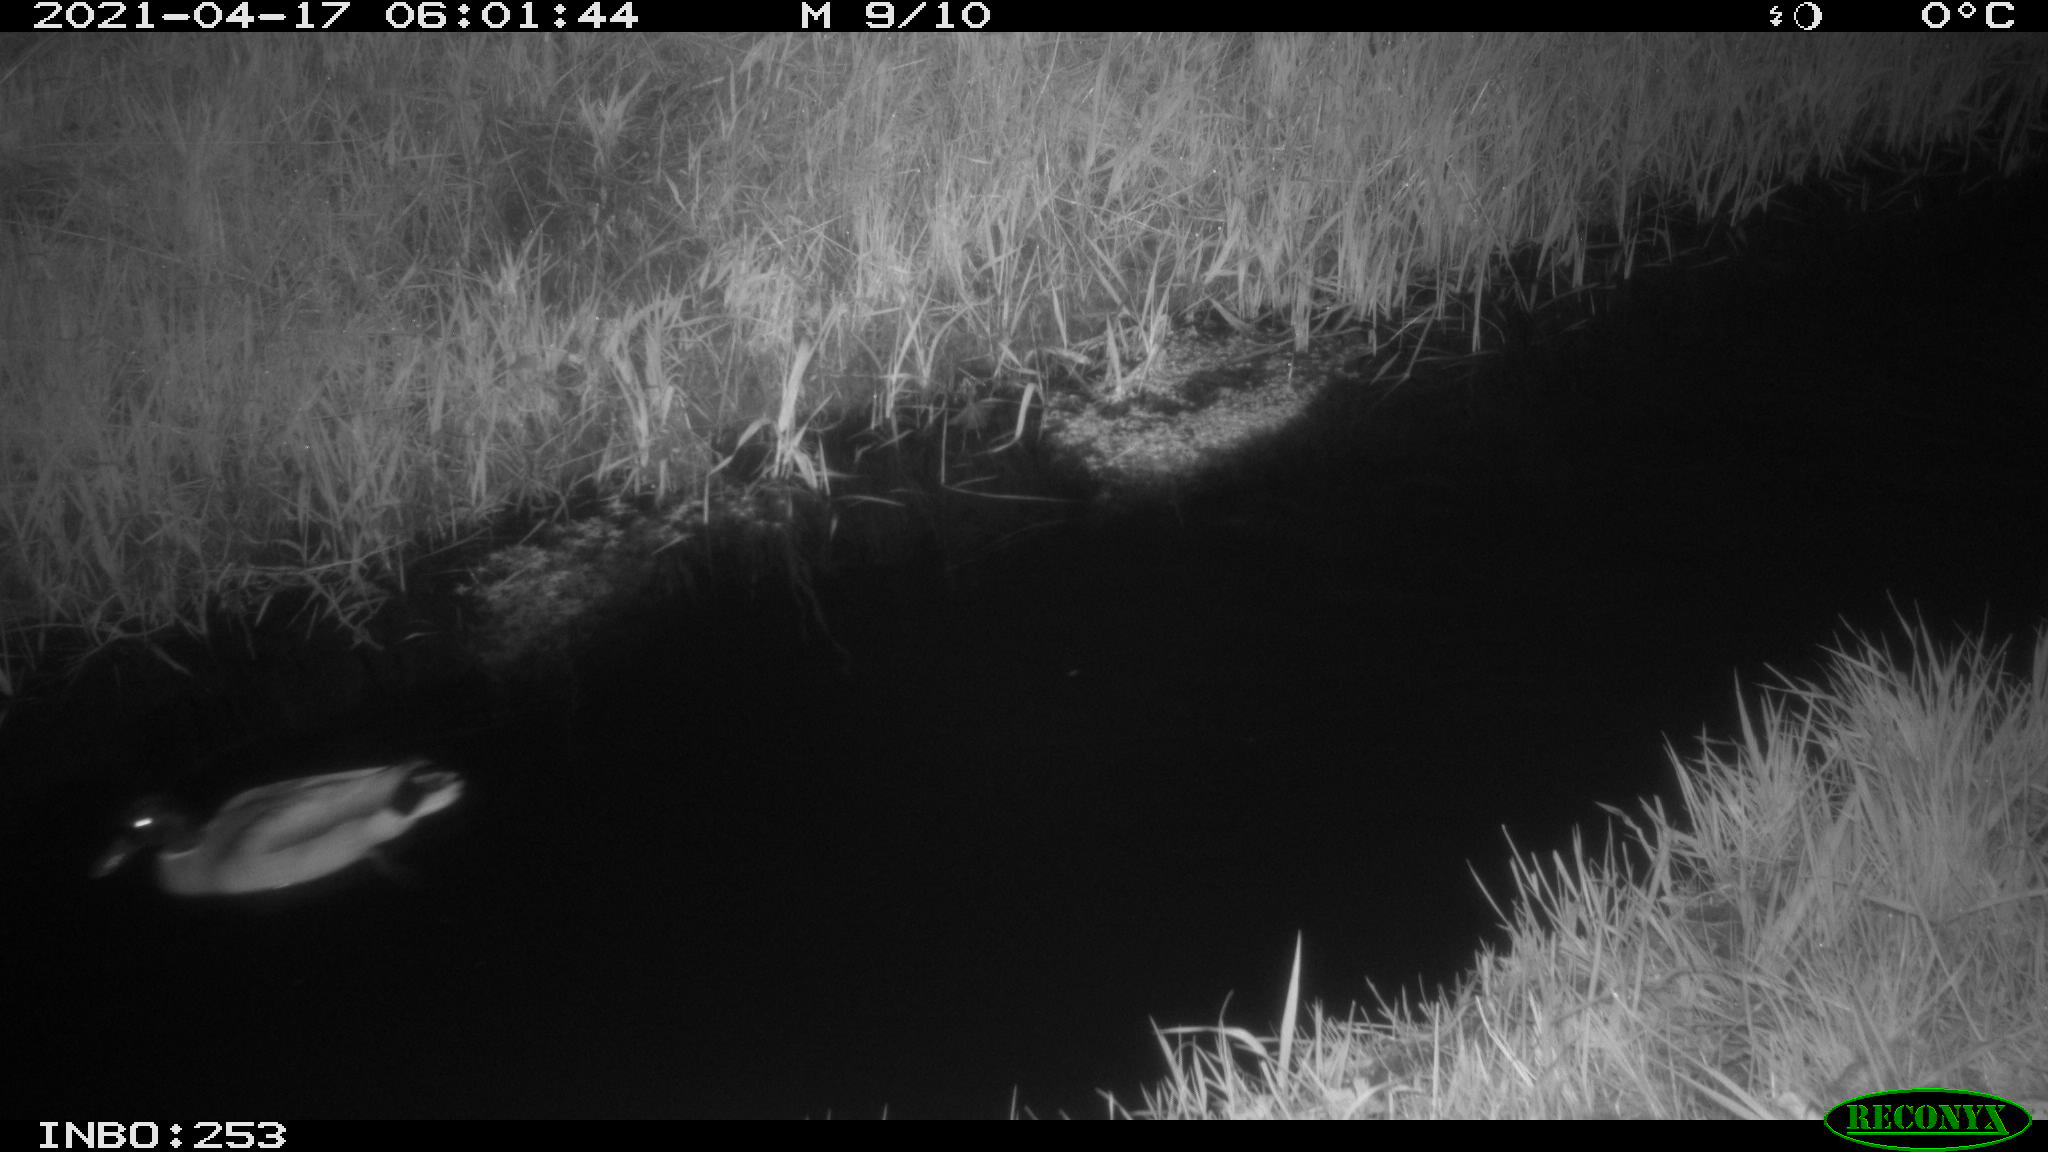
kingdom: Animalia
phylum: Chordata
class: Aves
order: Anseriformes
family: Anatidae
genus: Anas
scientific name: Anas platyrhynchos
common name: Mallard
